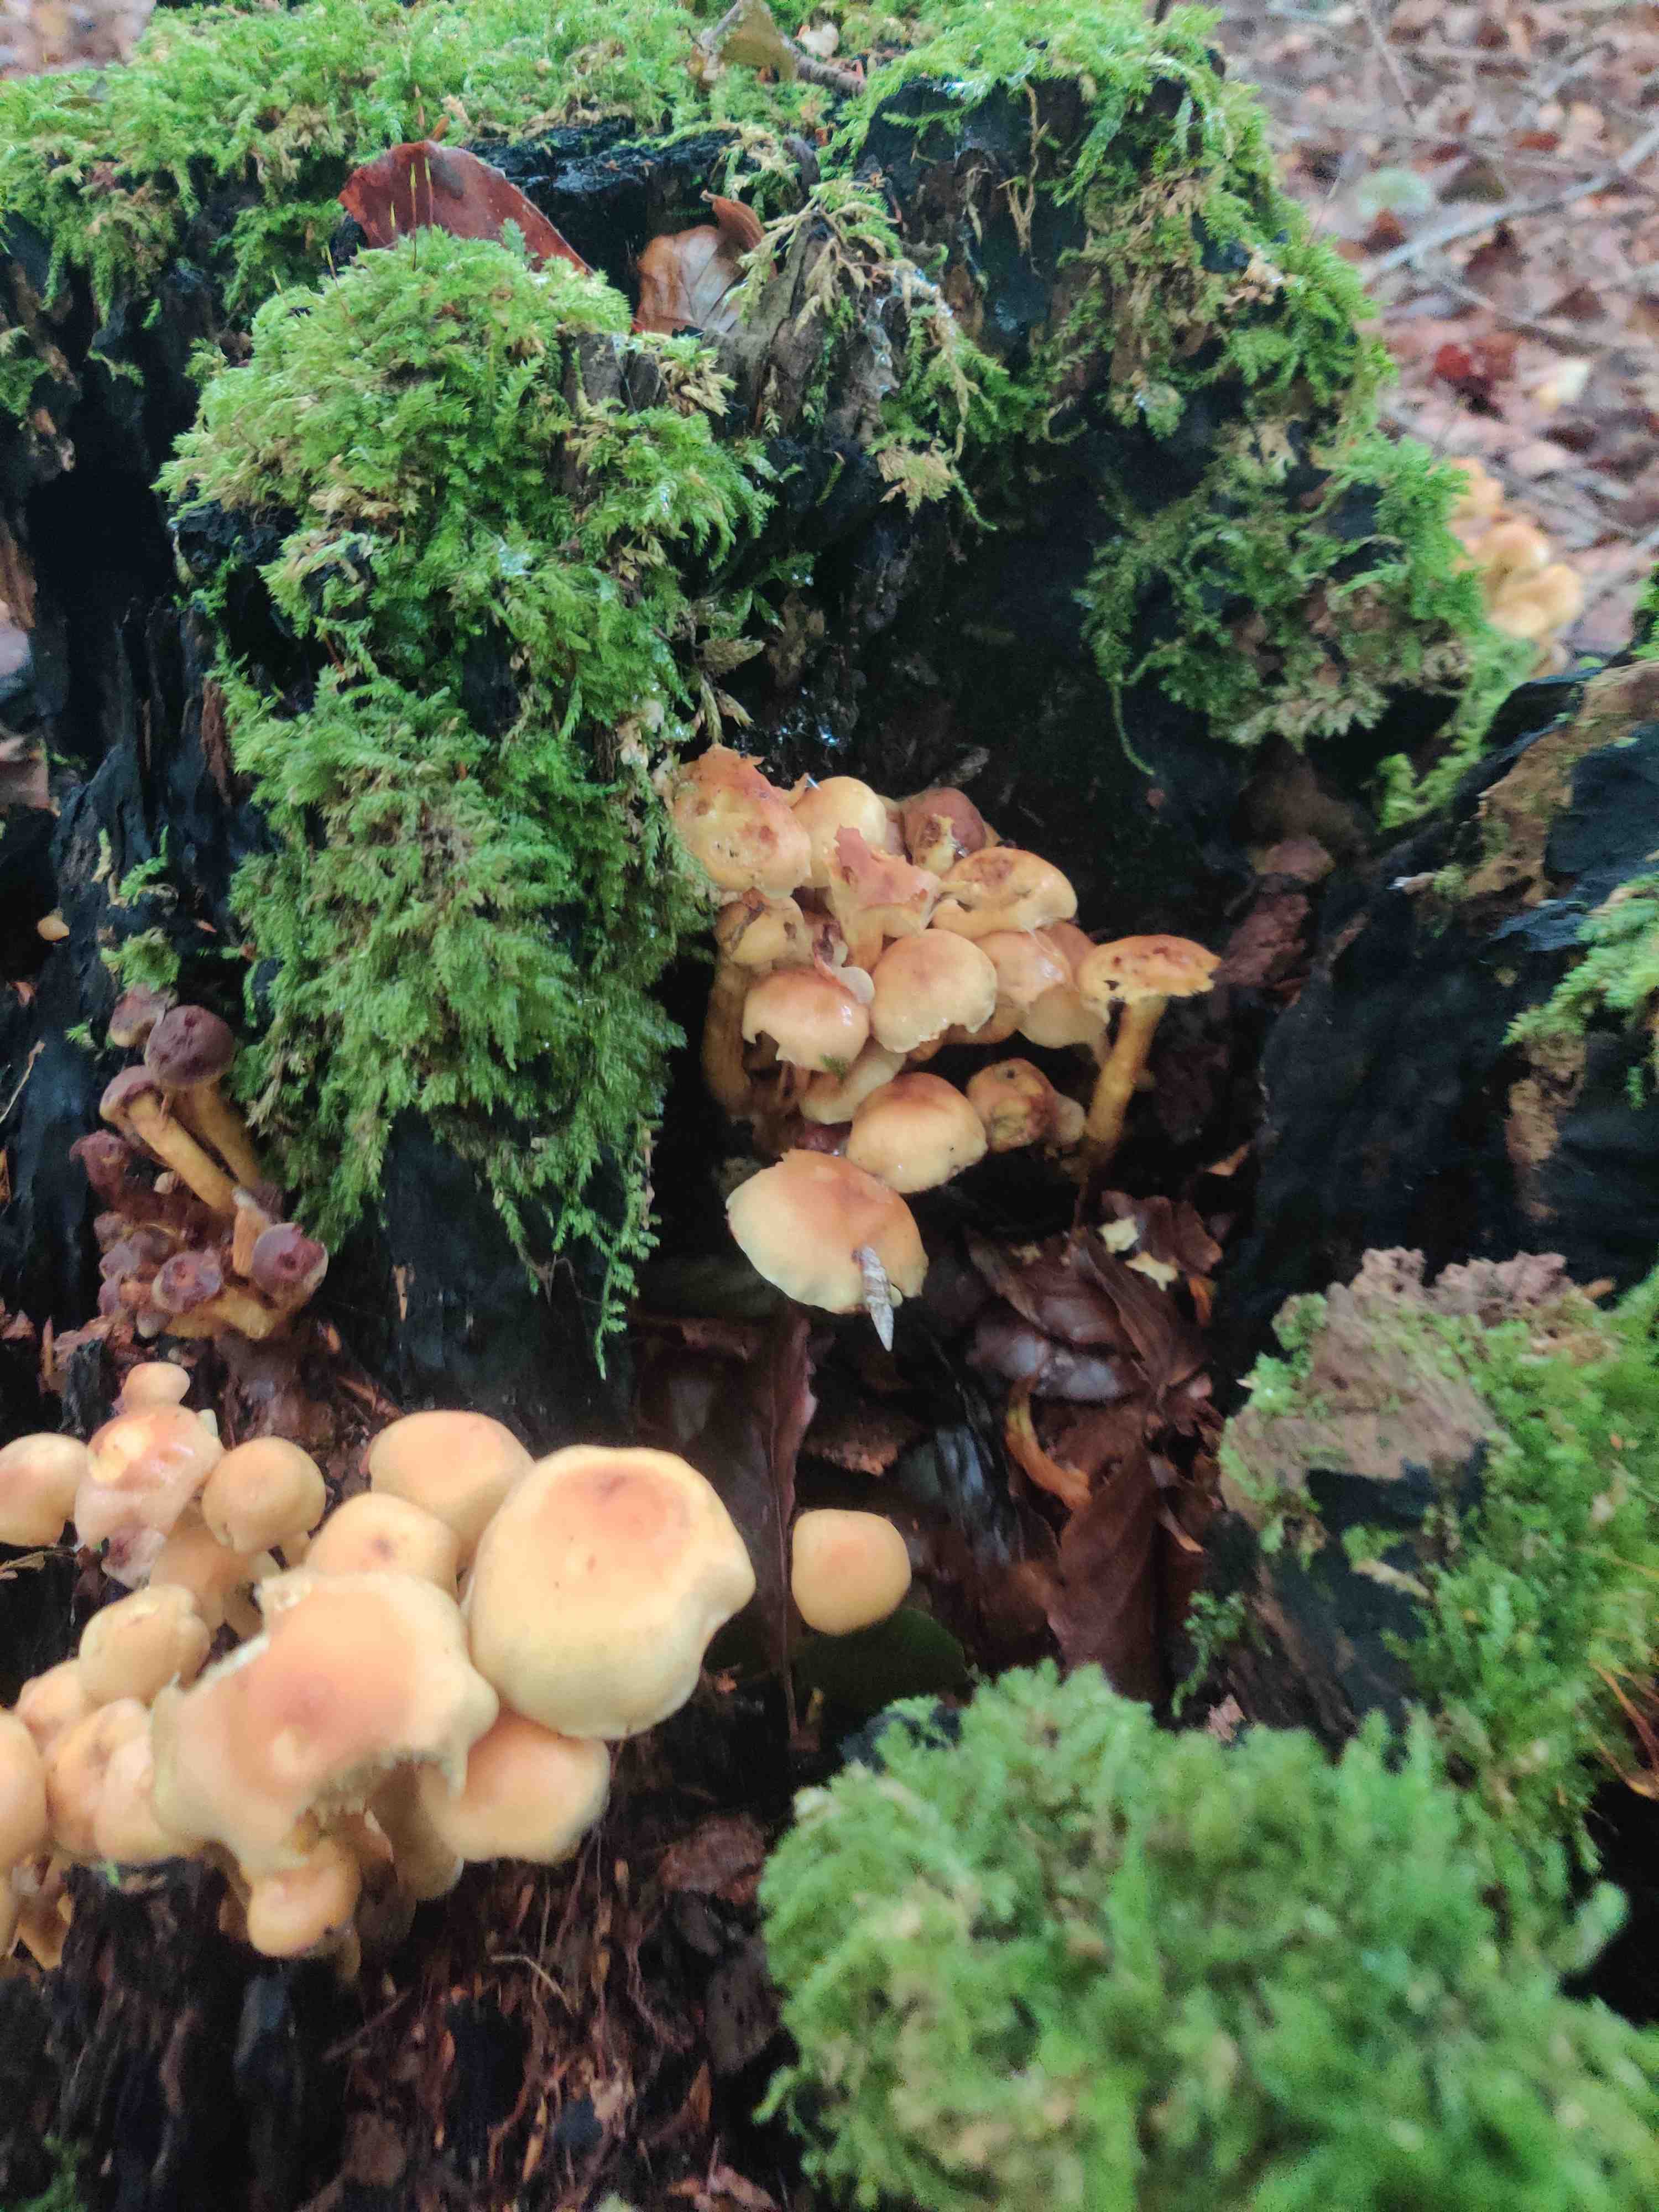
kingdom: Fungi
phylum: Basidiomycota
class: Agaricomycetes
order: Agaricales
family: Strophariaceae
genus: Hypholoma
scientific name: Hypholoma fasciculare
